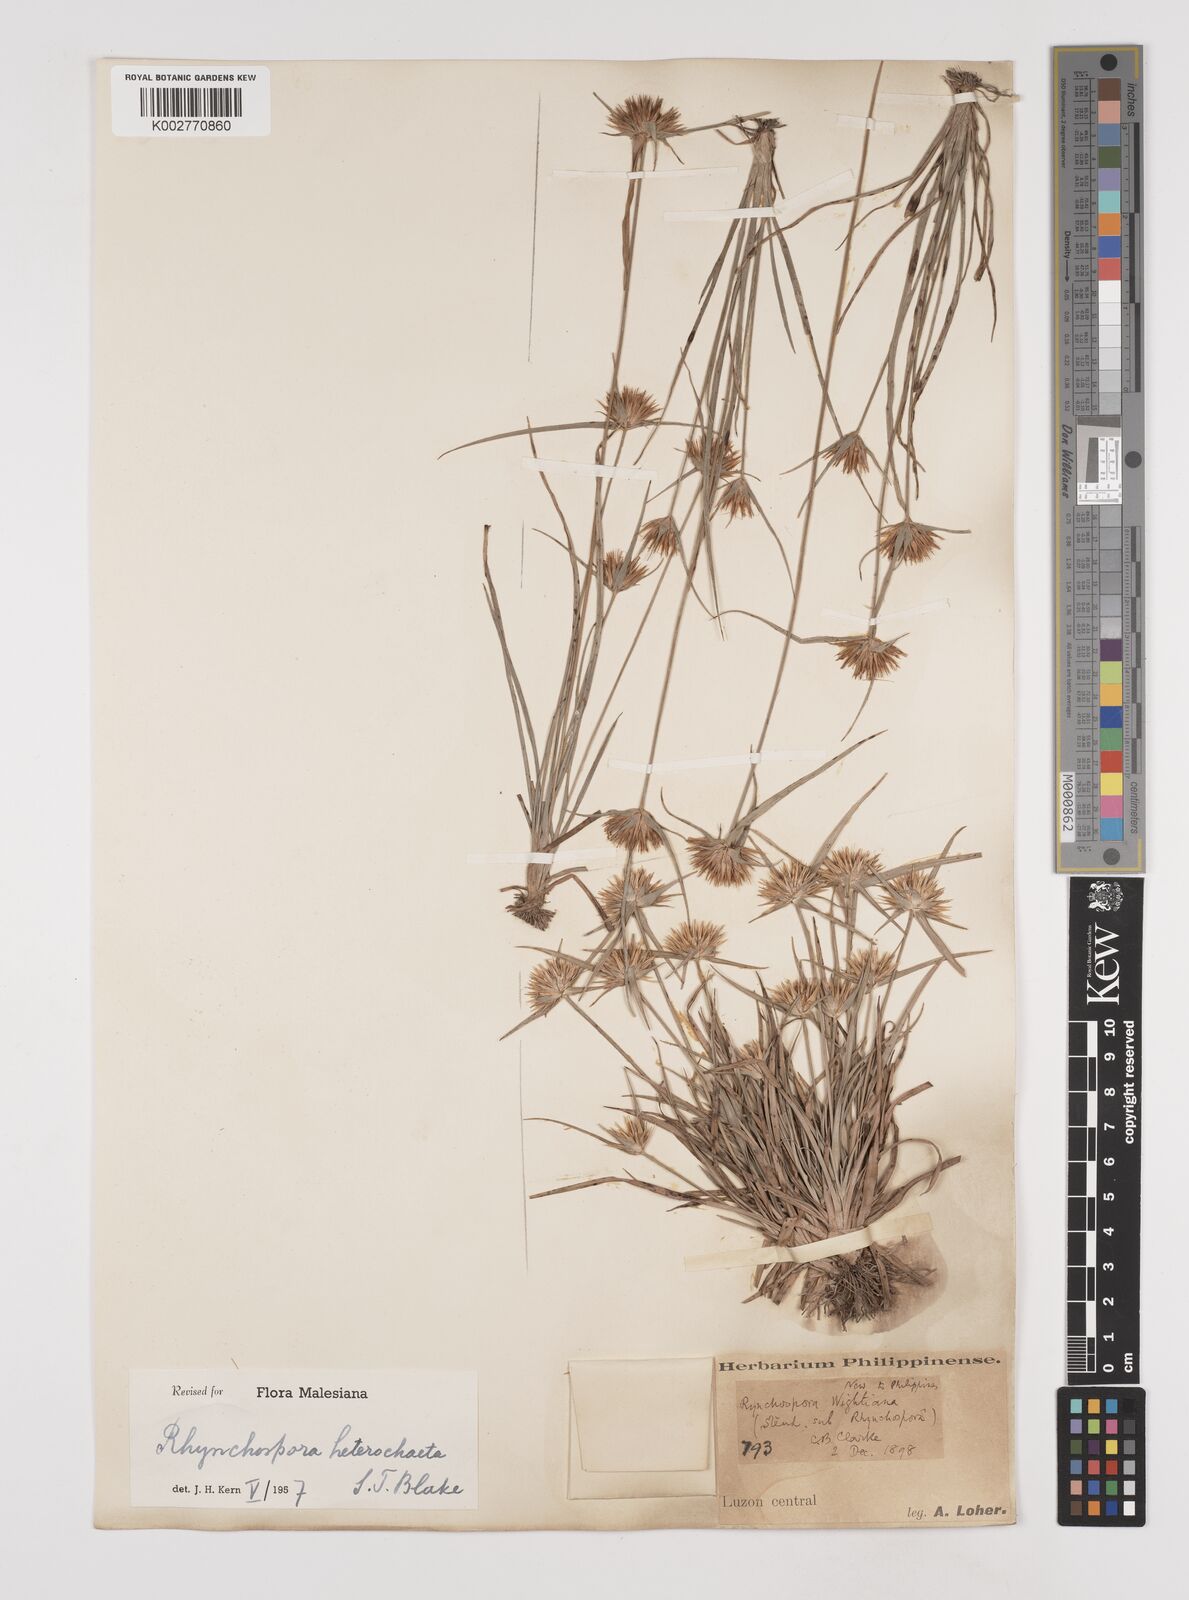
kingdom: Plantae
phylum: Tracheophyta
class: Liliopsida
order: Poales
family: Cyperaceae
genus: Rhynchospora
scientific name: Rhynchospora heterochaeta
